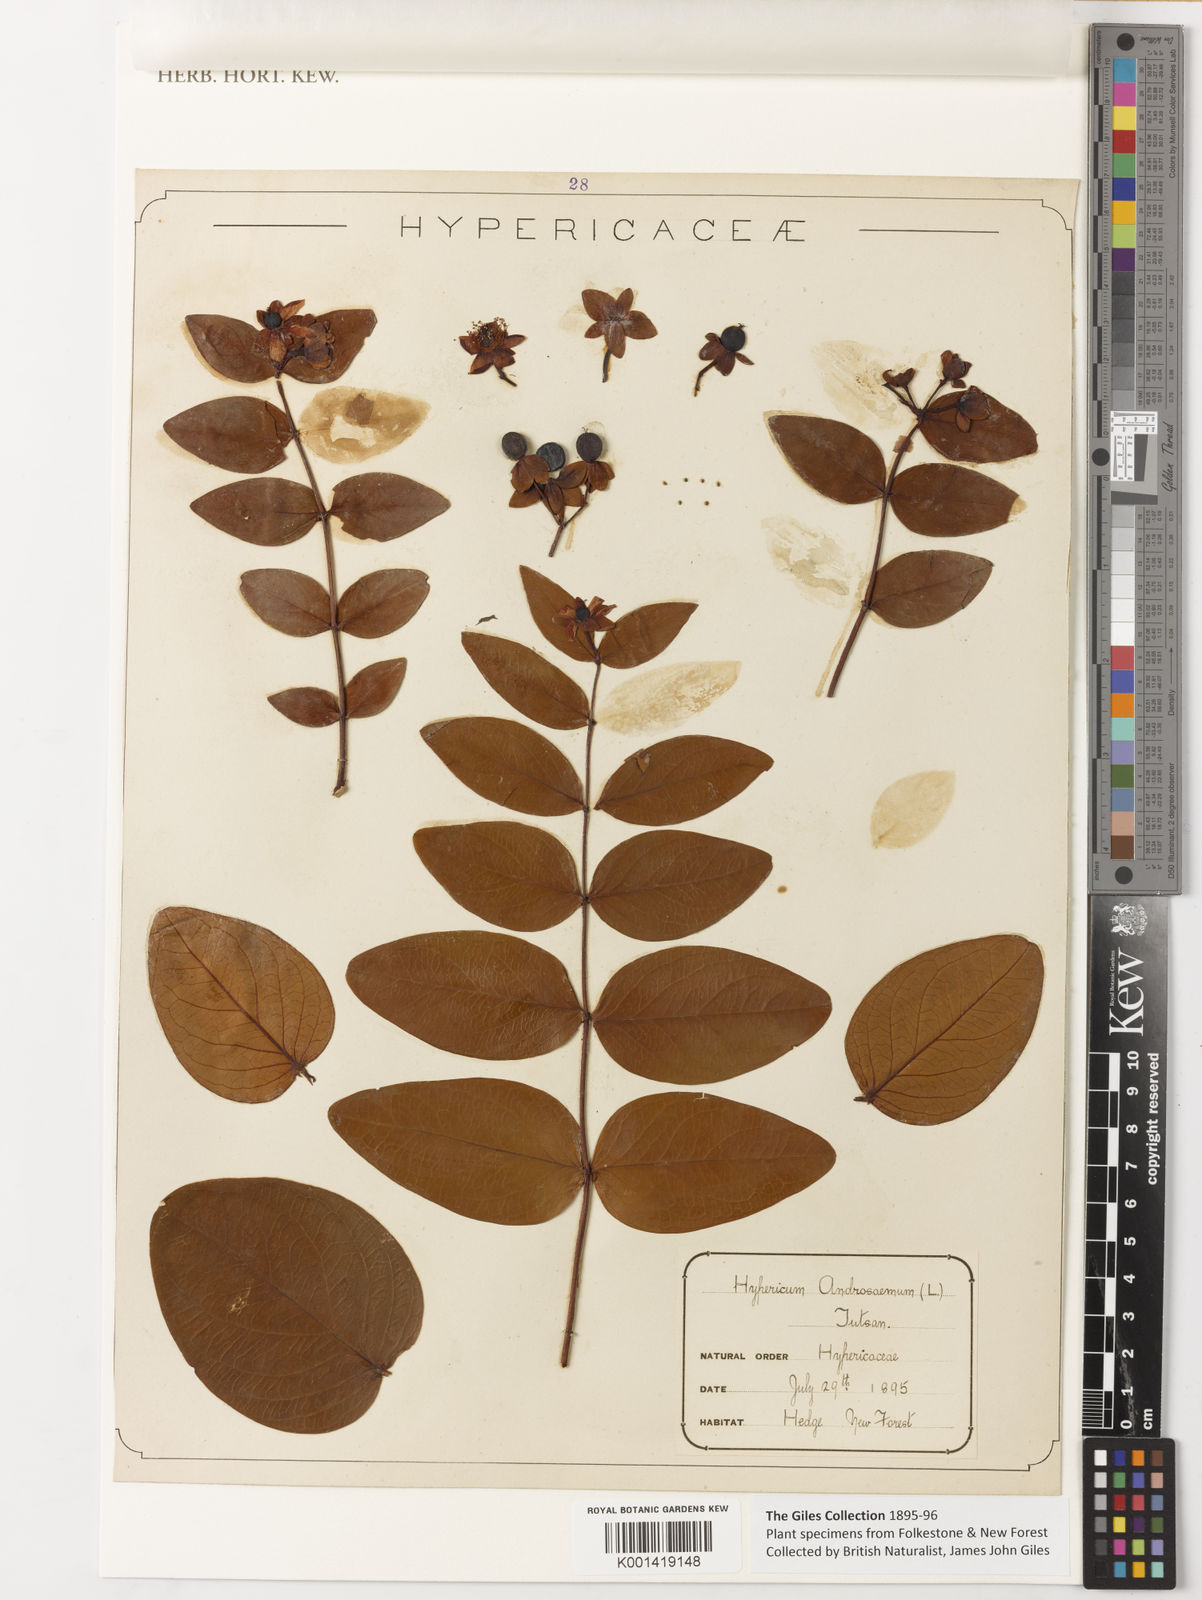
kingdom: Plantae
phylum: Tracheophyta
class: Magnoliopsida
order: Malpighiales
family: Hypericaceae
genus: Hypericum
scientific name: Hypericum androsaemum
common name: Sweet-amber
